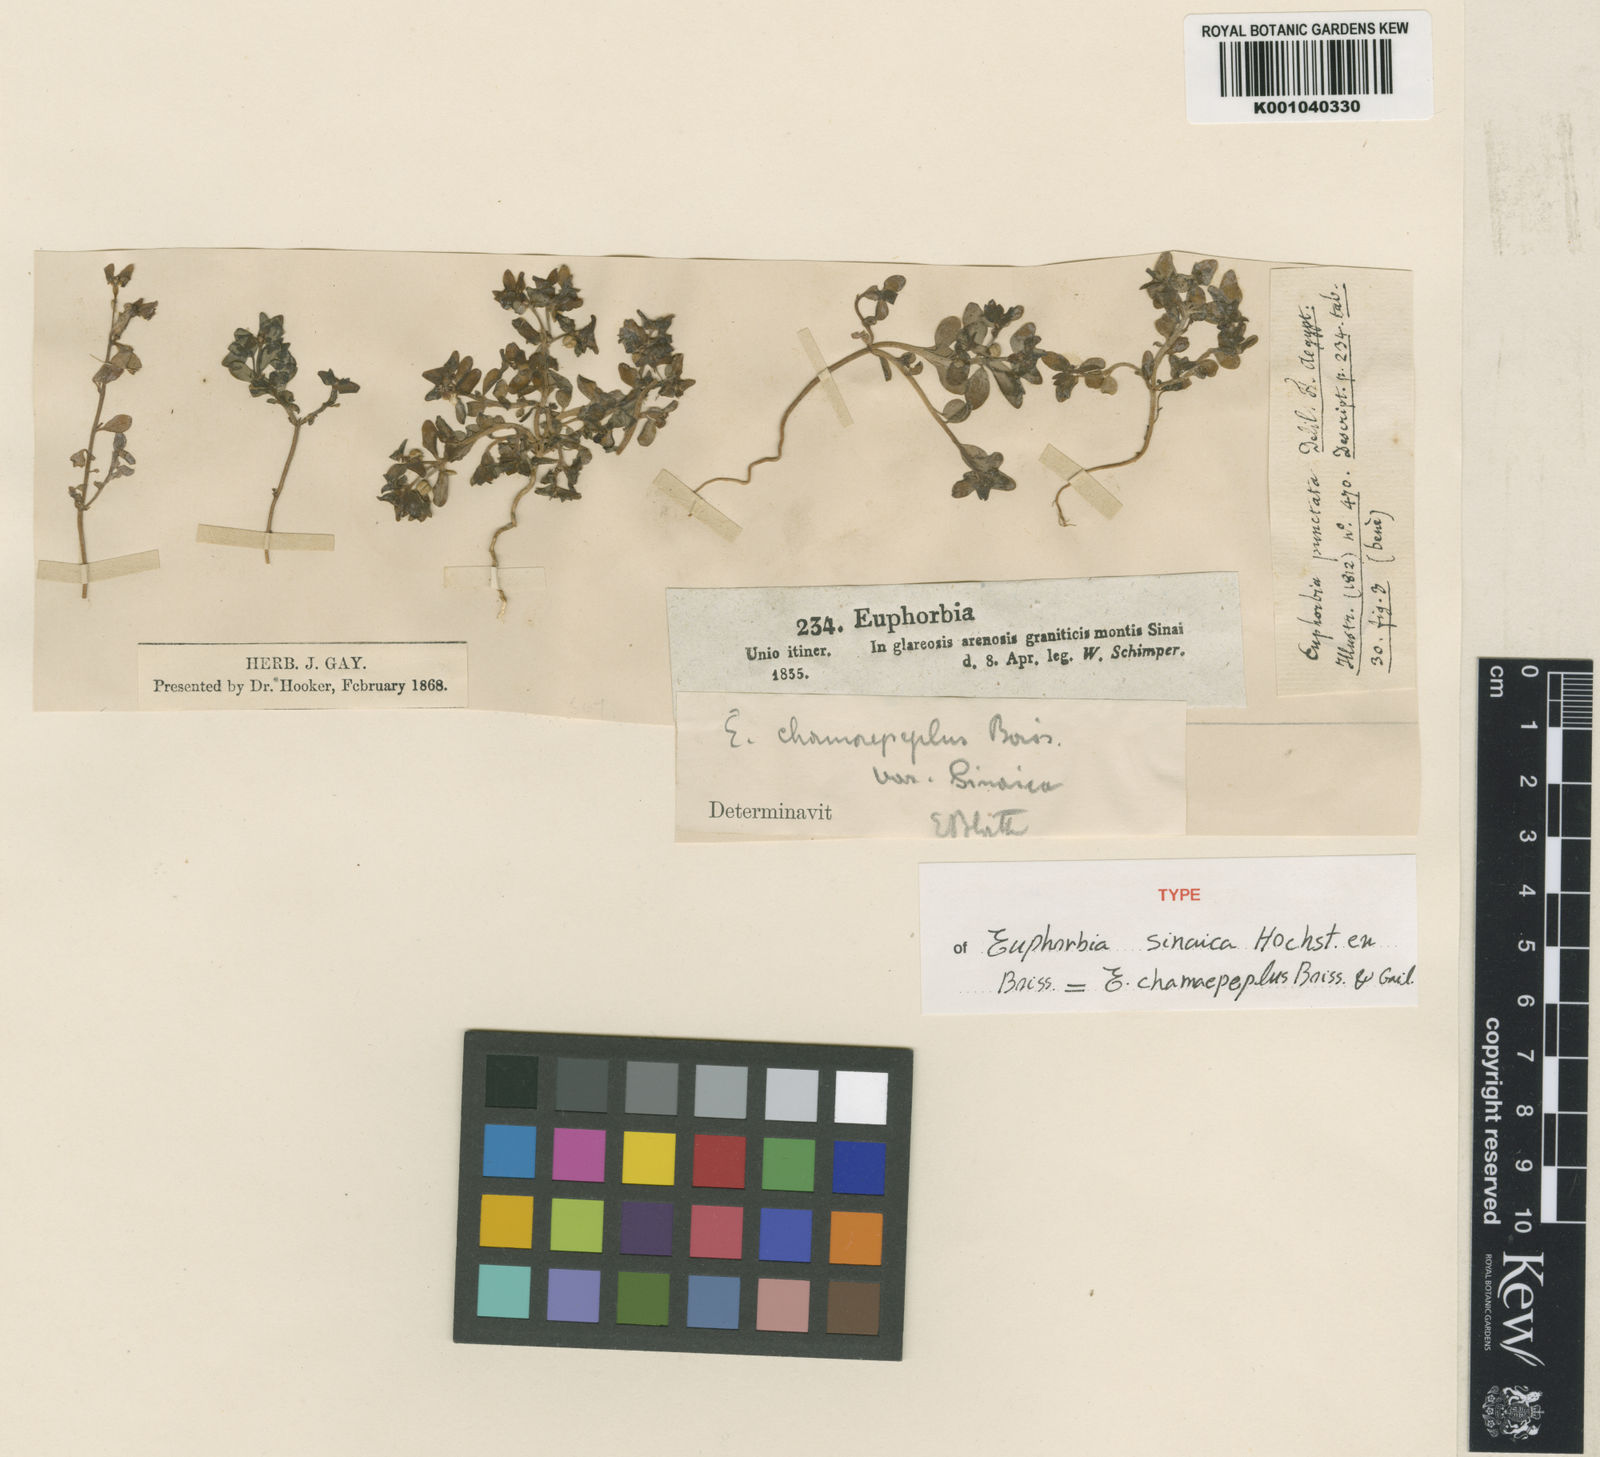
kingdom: Plantae
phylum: Tracheophyta
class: Magnoliopsida
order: Malpighiales
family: Euphorbiaceae
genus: Euphorbia
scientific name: Euphorbia chamaepeplus
